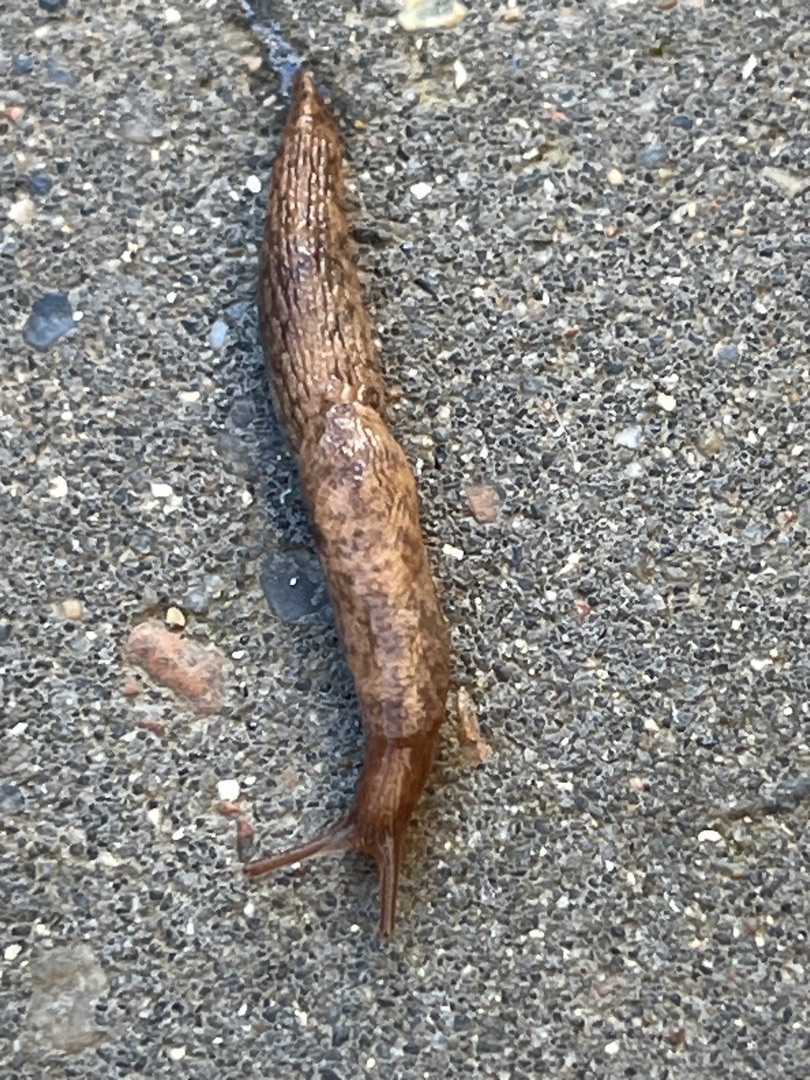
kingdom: Animalia
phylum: Mollusca
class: Gastropoda
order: Stylommatophora
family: Agriolimacidae
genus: Deroceras
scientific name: Deroceras reticulatum
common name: Net-agersnegl
